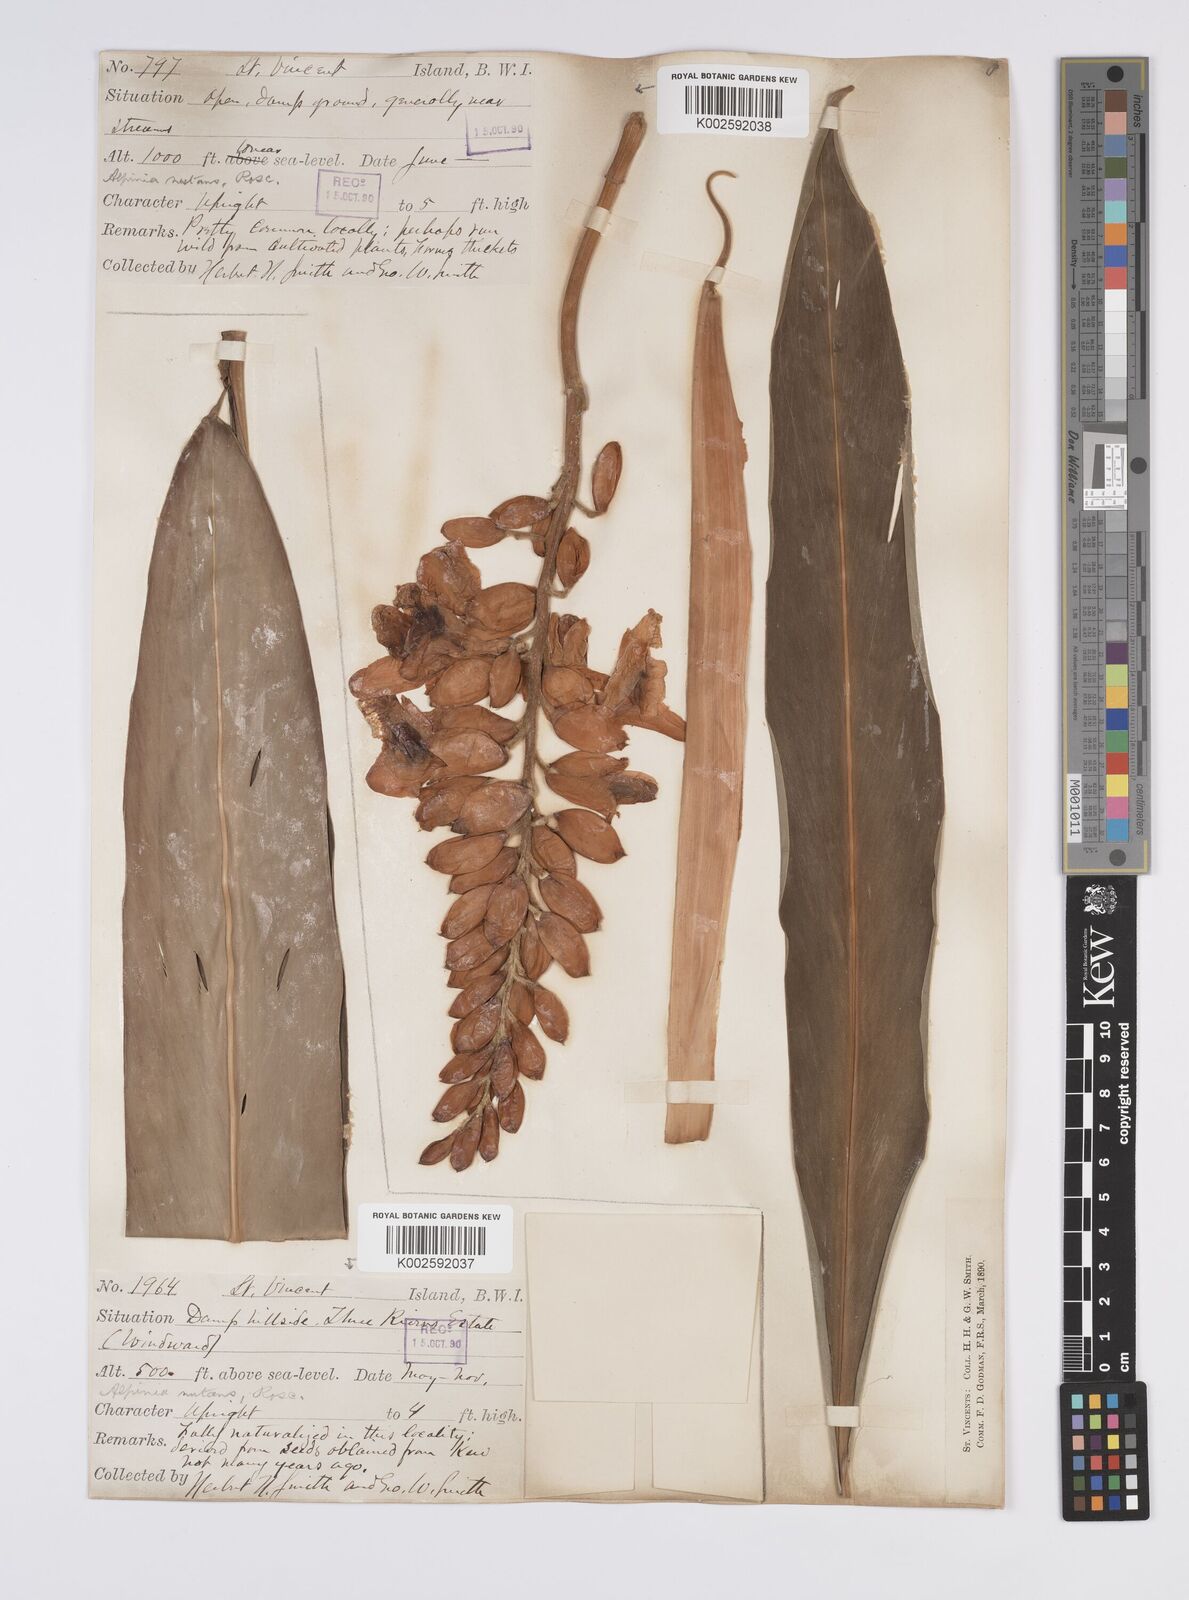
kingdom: Plantae
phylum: Tracheophyta
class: Liliopsida
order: Zingiberales
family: Zingiberaceae
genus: Alpinia
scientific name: Alpinia zerumbet
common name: Shellplant
